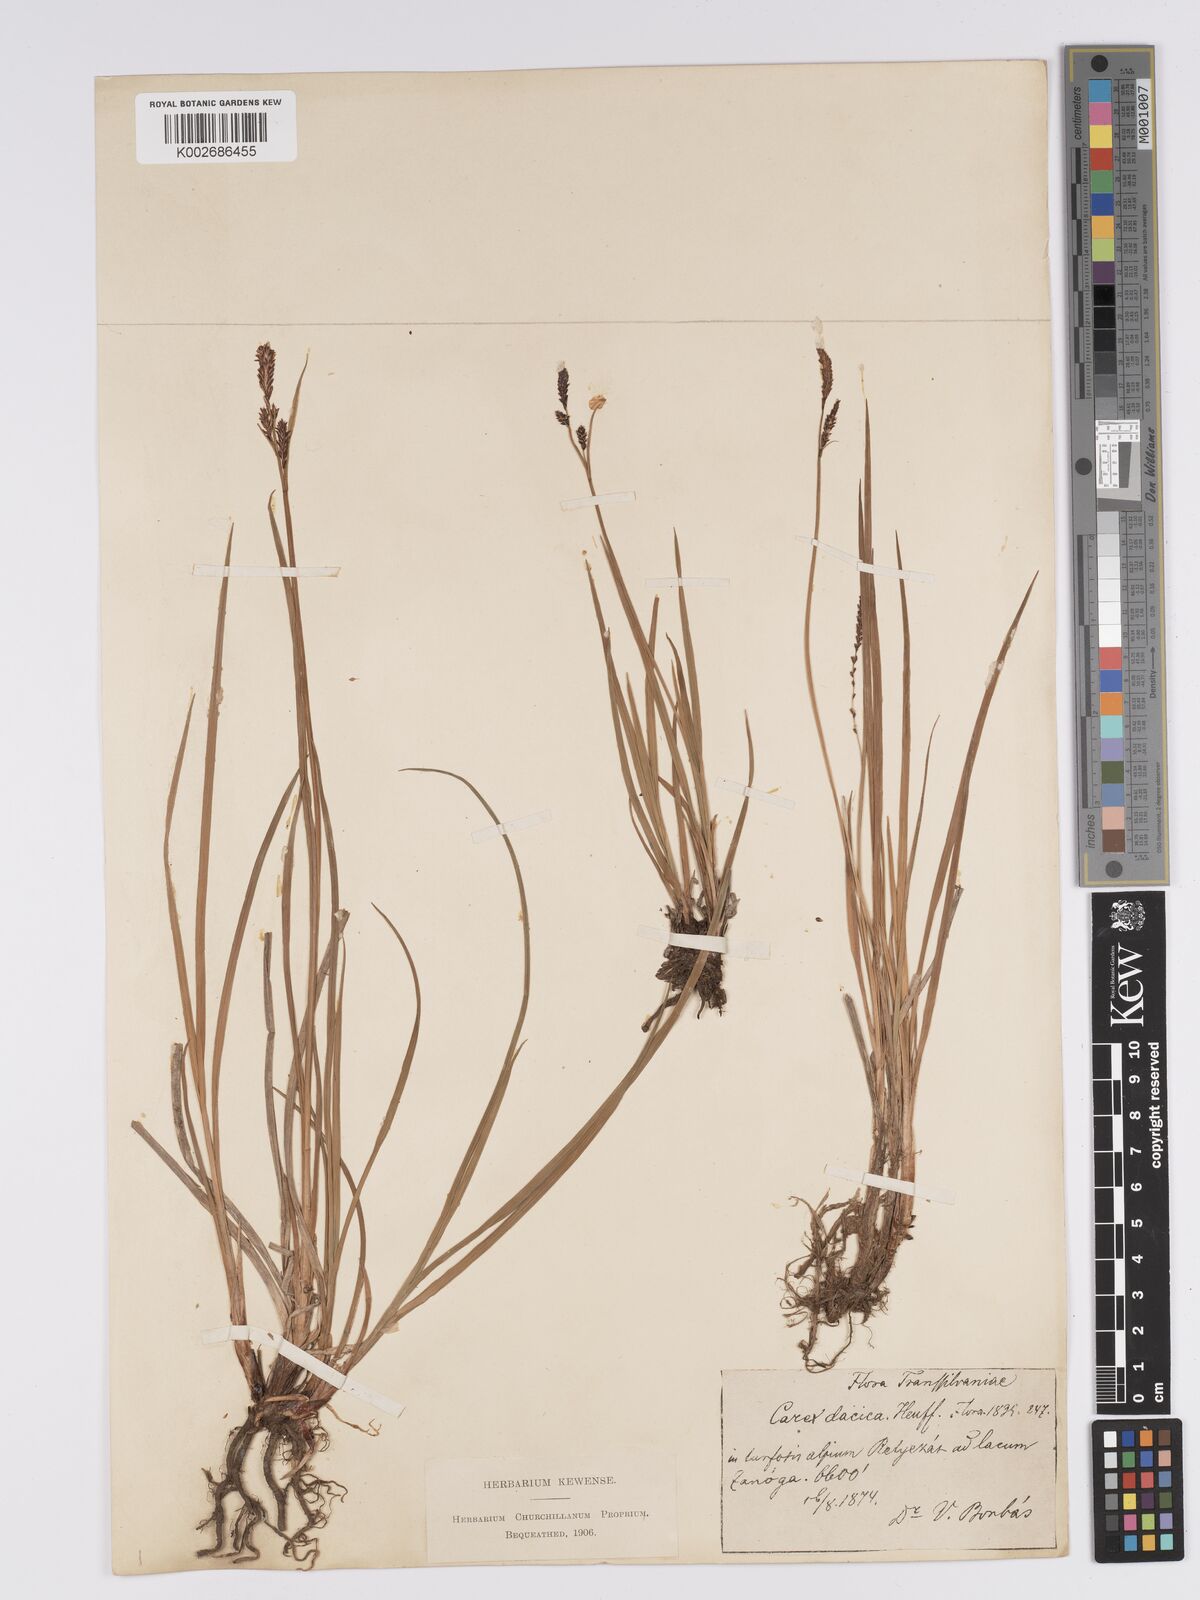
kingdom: Plantae
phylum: Tracheophyta
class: Liliopsida
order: Poales
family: Cyperaceae
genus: Carex
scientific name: Carex bigelowii
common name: Stiff sedge
